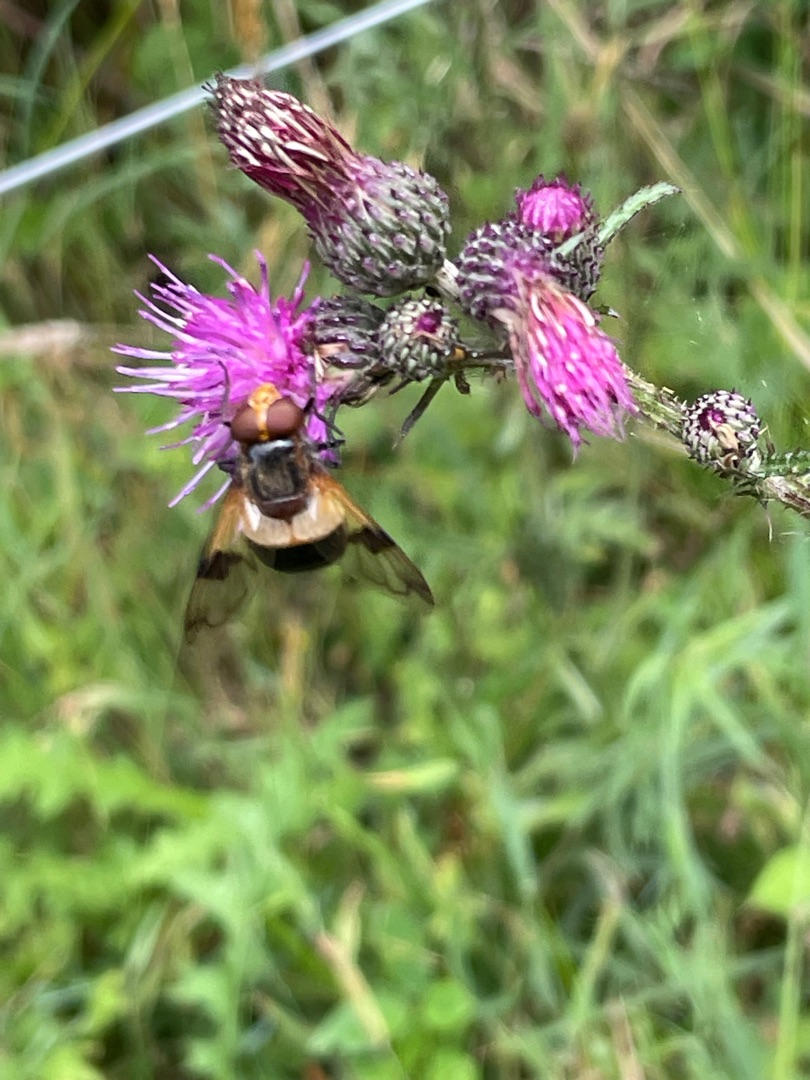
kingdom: Animalia
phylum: Arthropoda
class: Insecta
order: Diptera
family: Syrphidae
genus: Volucella
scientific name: Volucella pellucens
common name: Hvidbåndet humlesvirreflue
